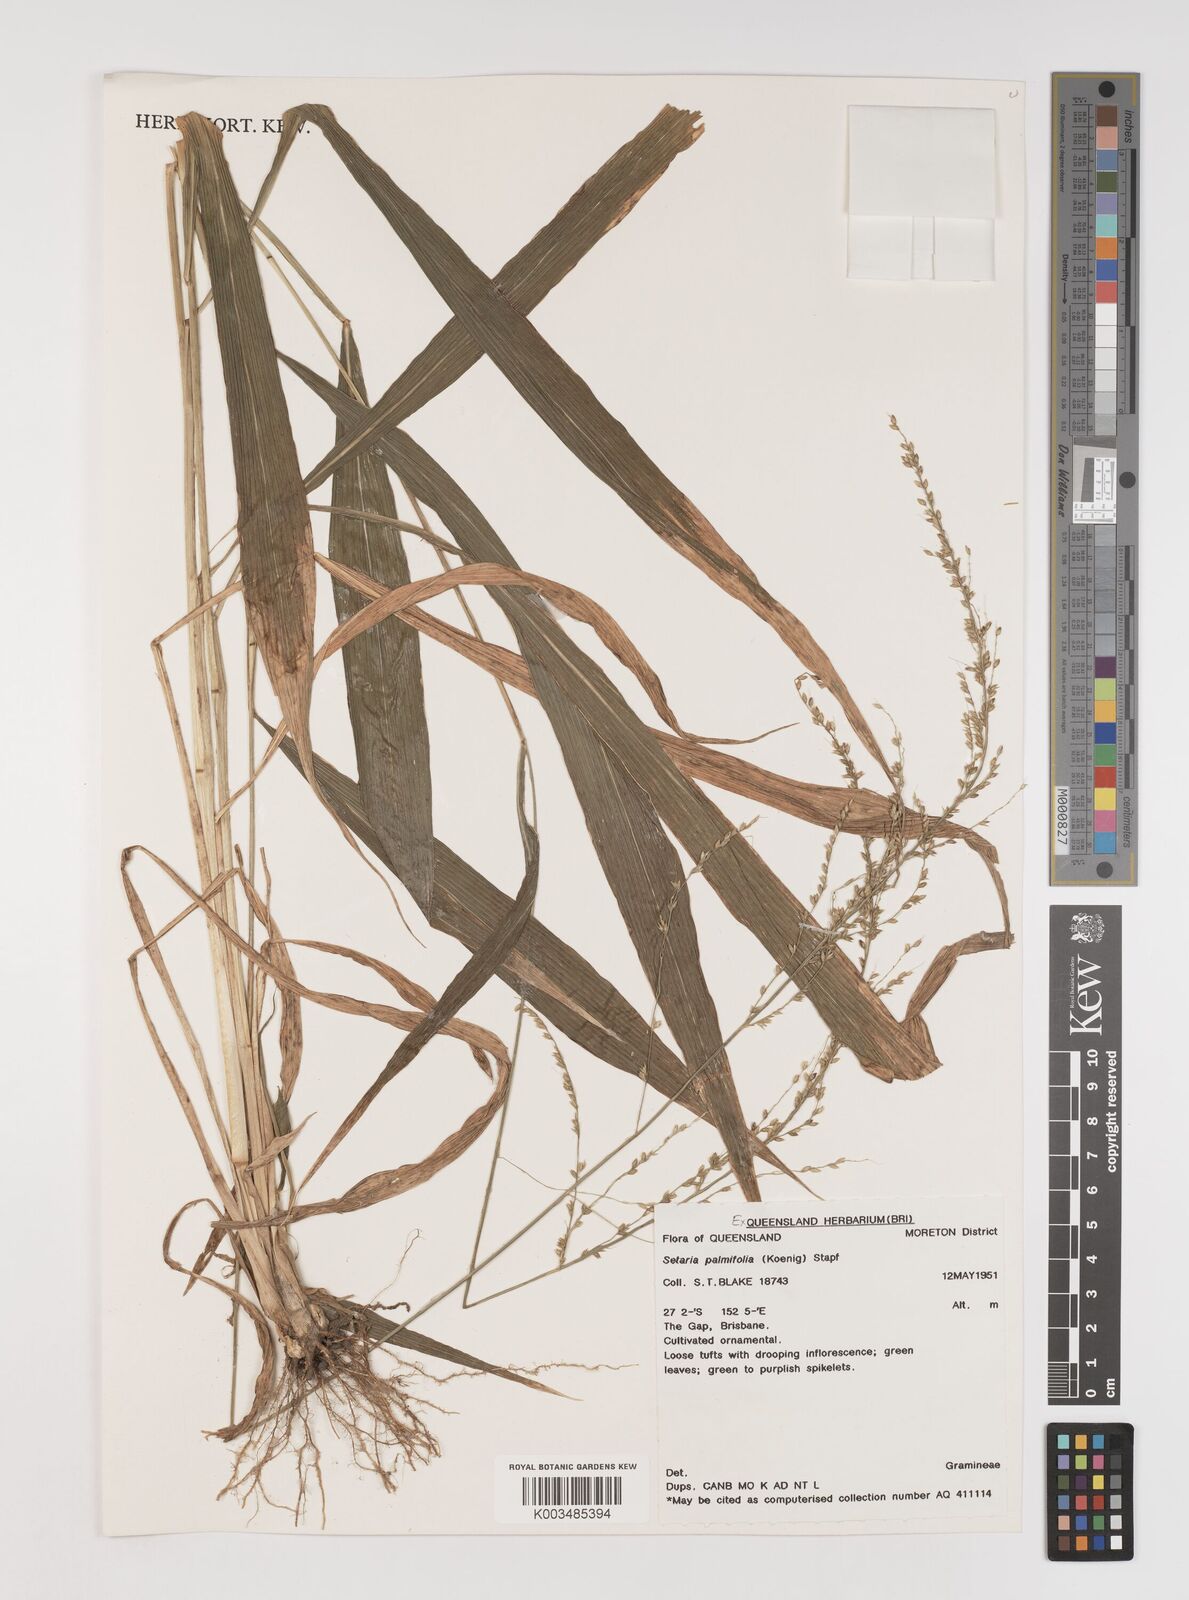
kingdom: Plantae
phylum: Tracheophyta
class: Liliopsida
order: Poales
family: Poaceae
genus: Setaria
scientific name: Setaria palmifolia
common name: Broadleaved bristlegrass
